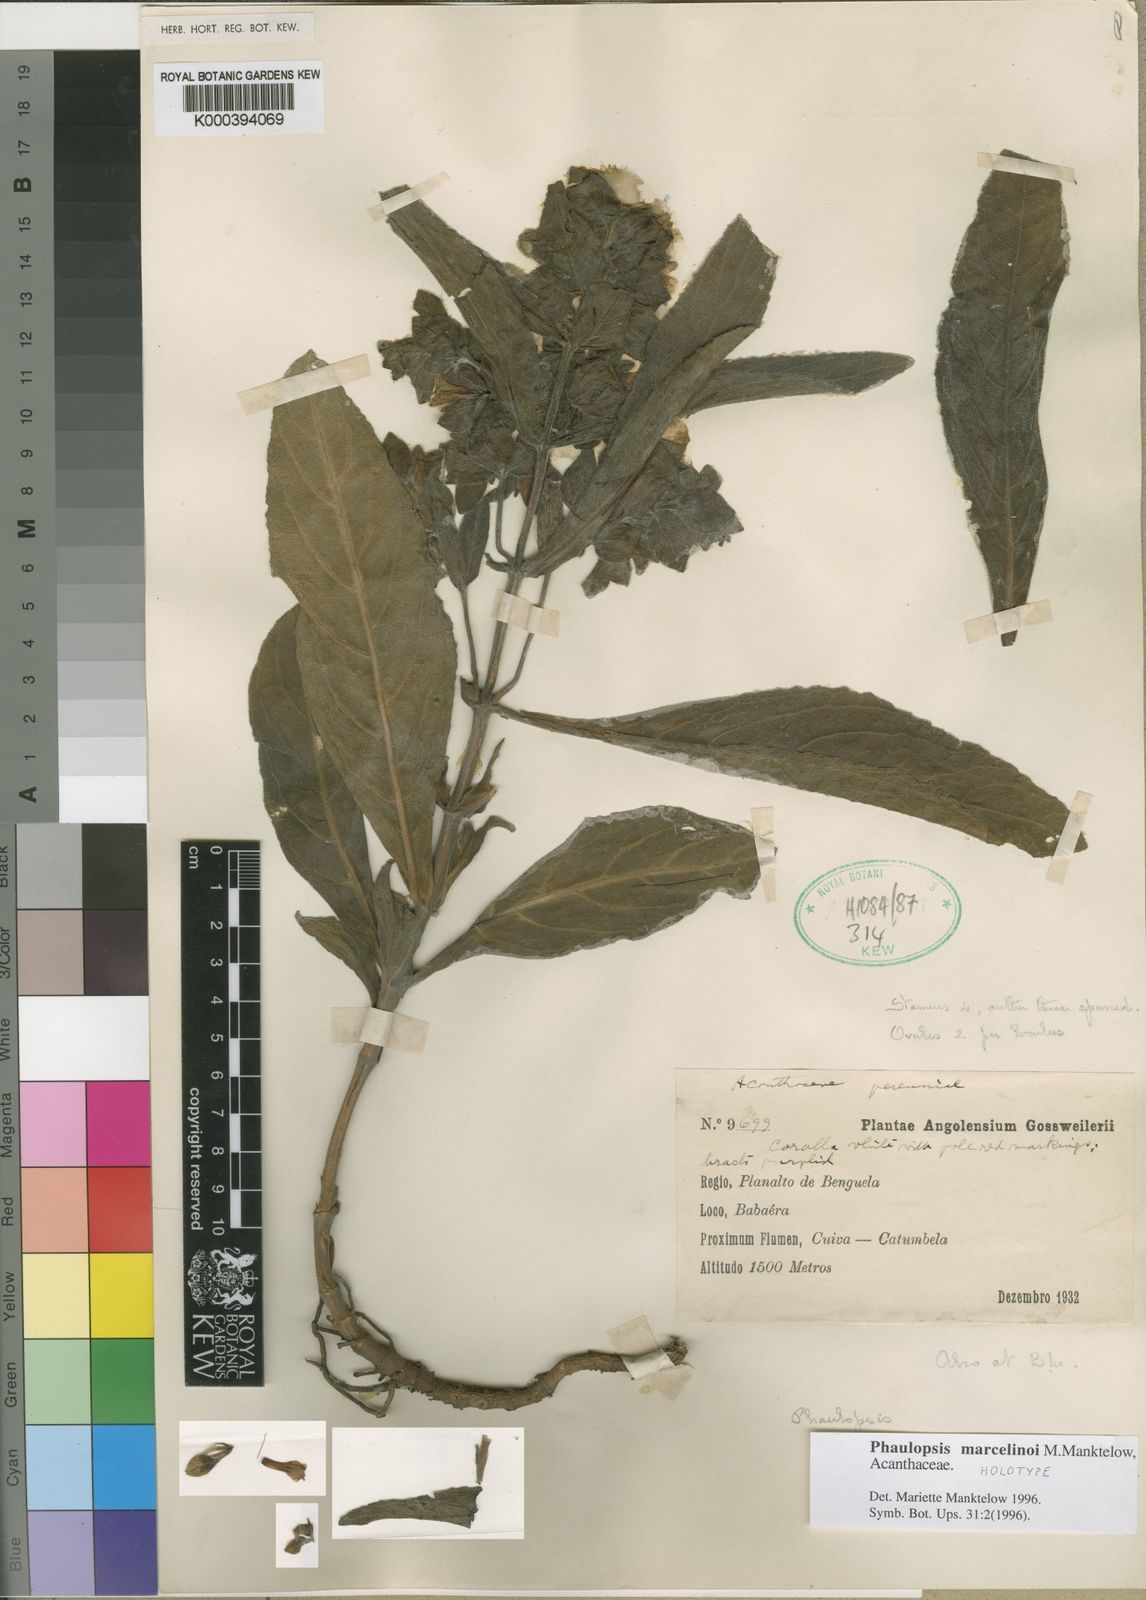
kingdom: Plantae
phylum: Tracheophyta
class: Magnoliopsida
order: Lamiales
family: Acanthaceae
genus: Phaulopsis
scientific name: Phaulopsis marcelinoi
